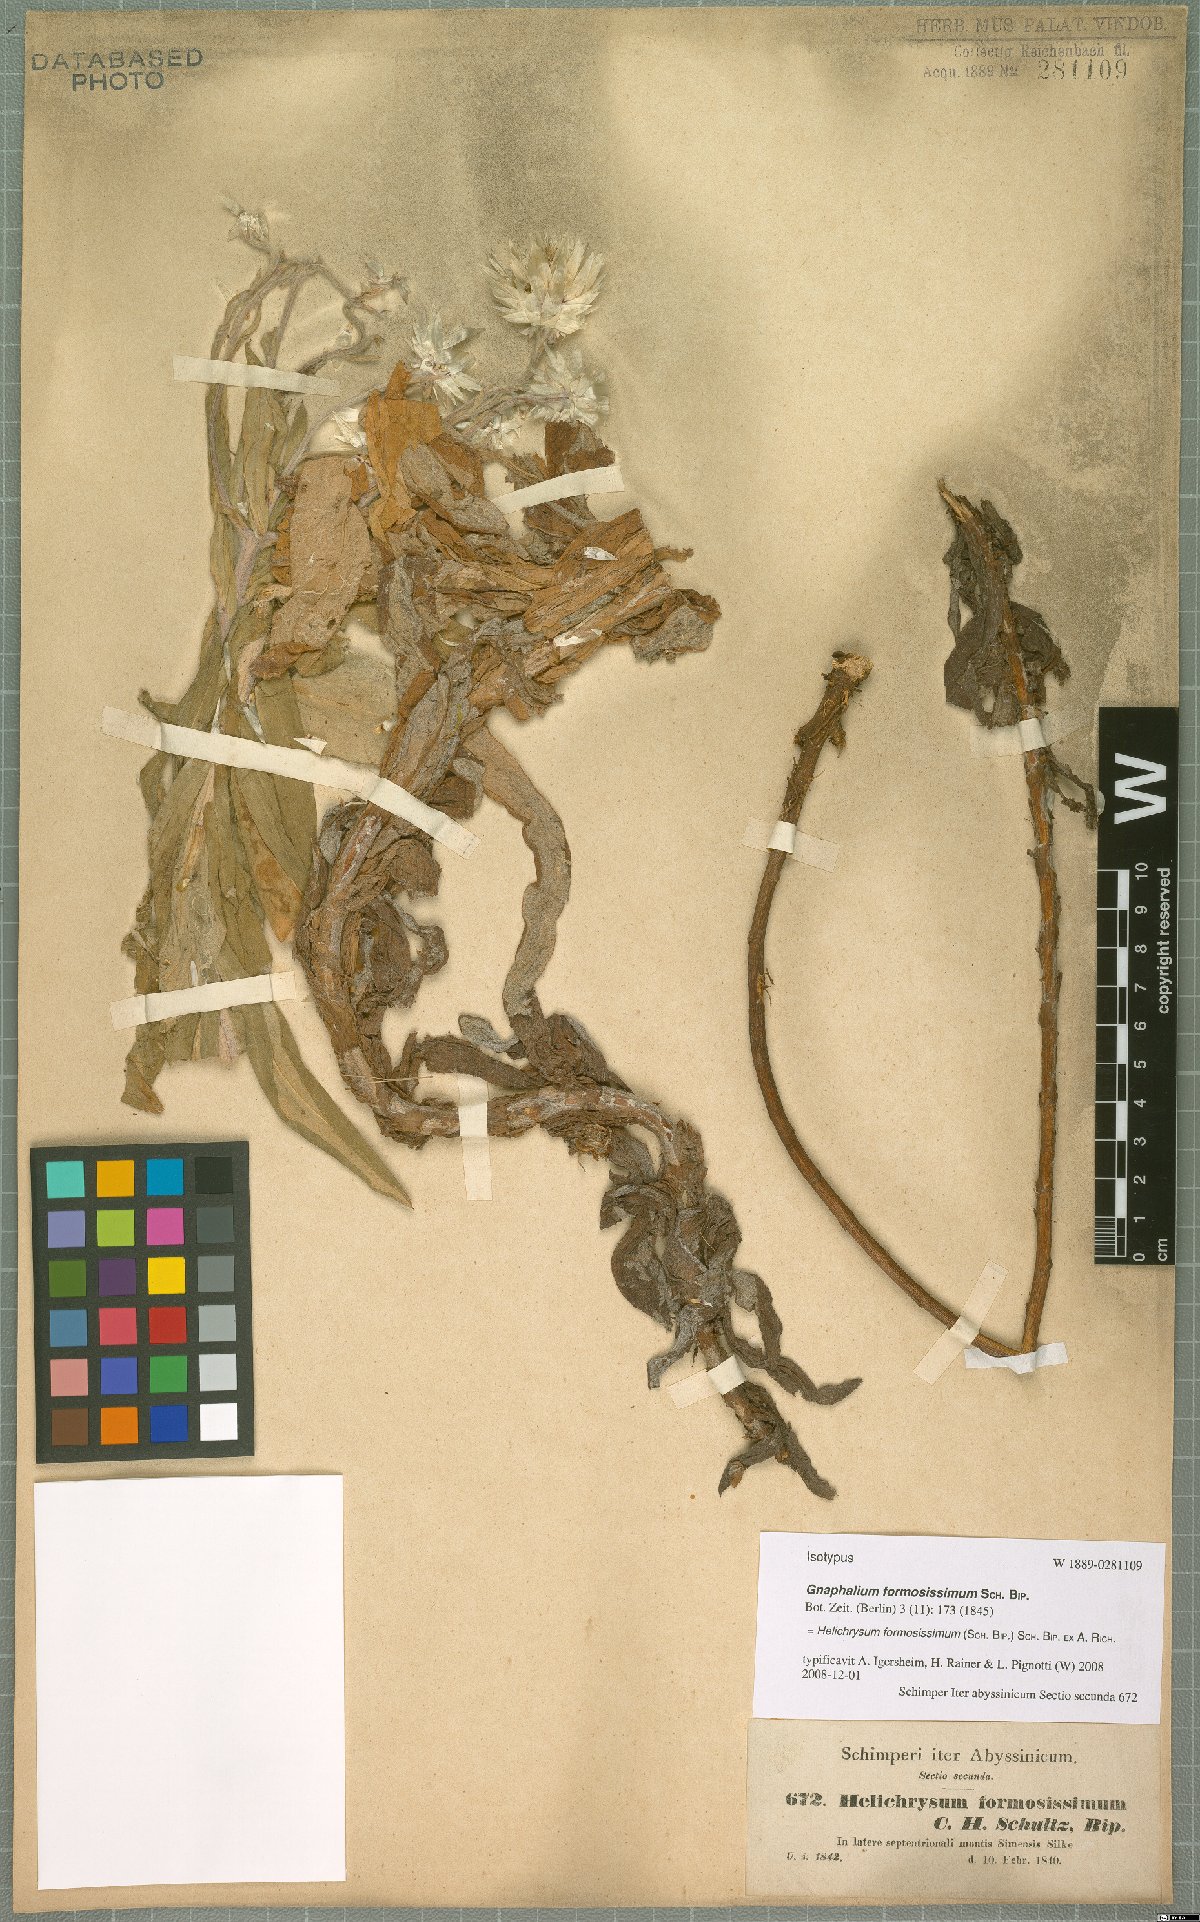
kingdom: Plantae
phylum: Tracheophyta
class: Magnoliopsida
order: Asterales
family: Asteraceae
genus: Helichrysum
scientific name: Helichrysum formosissimum
